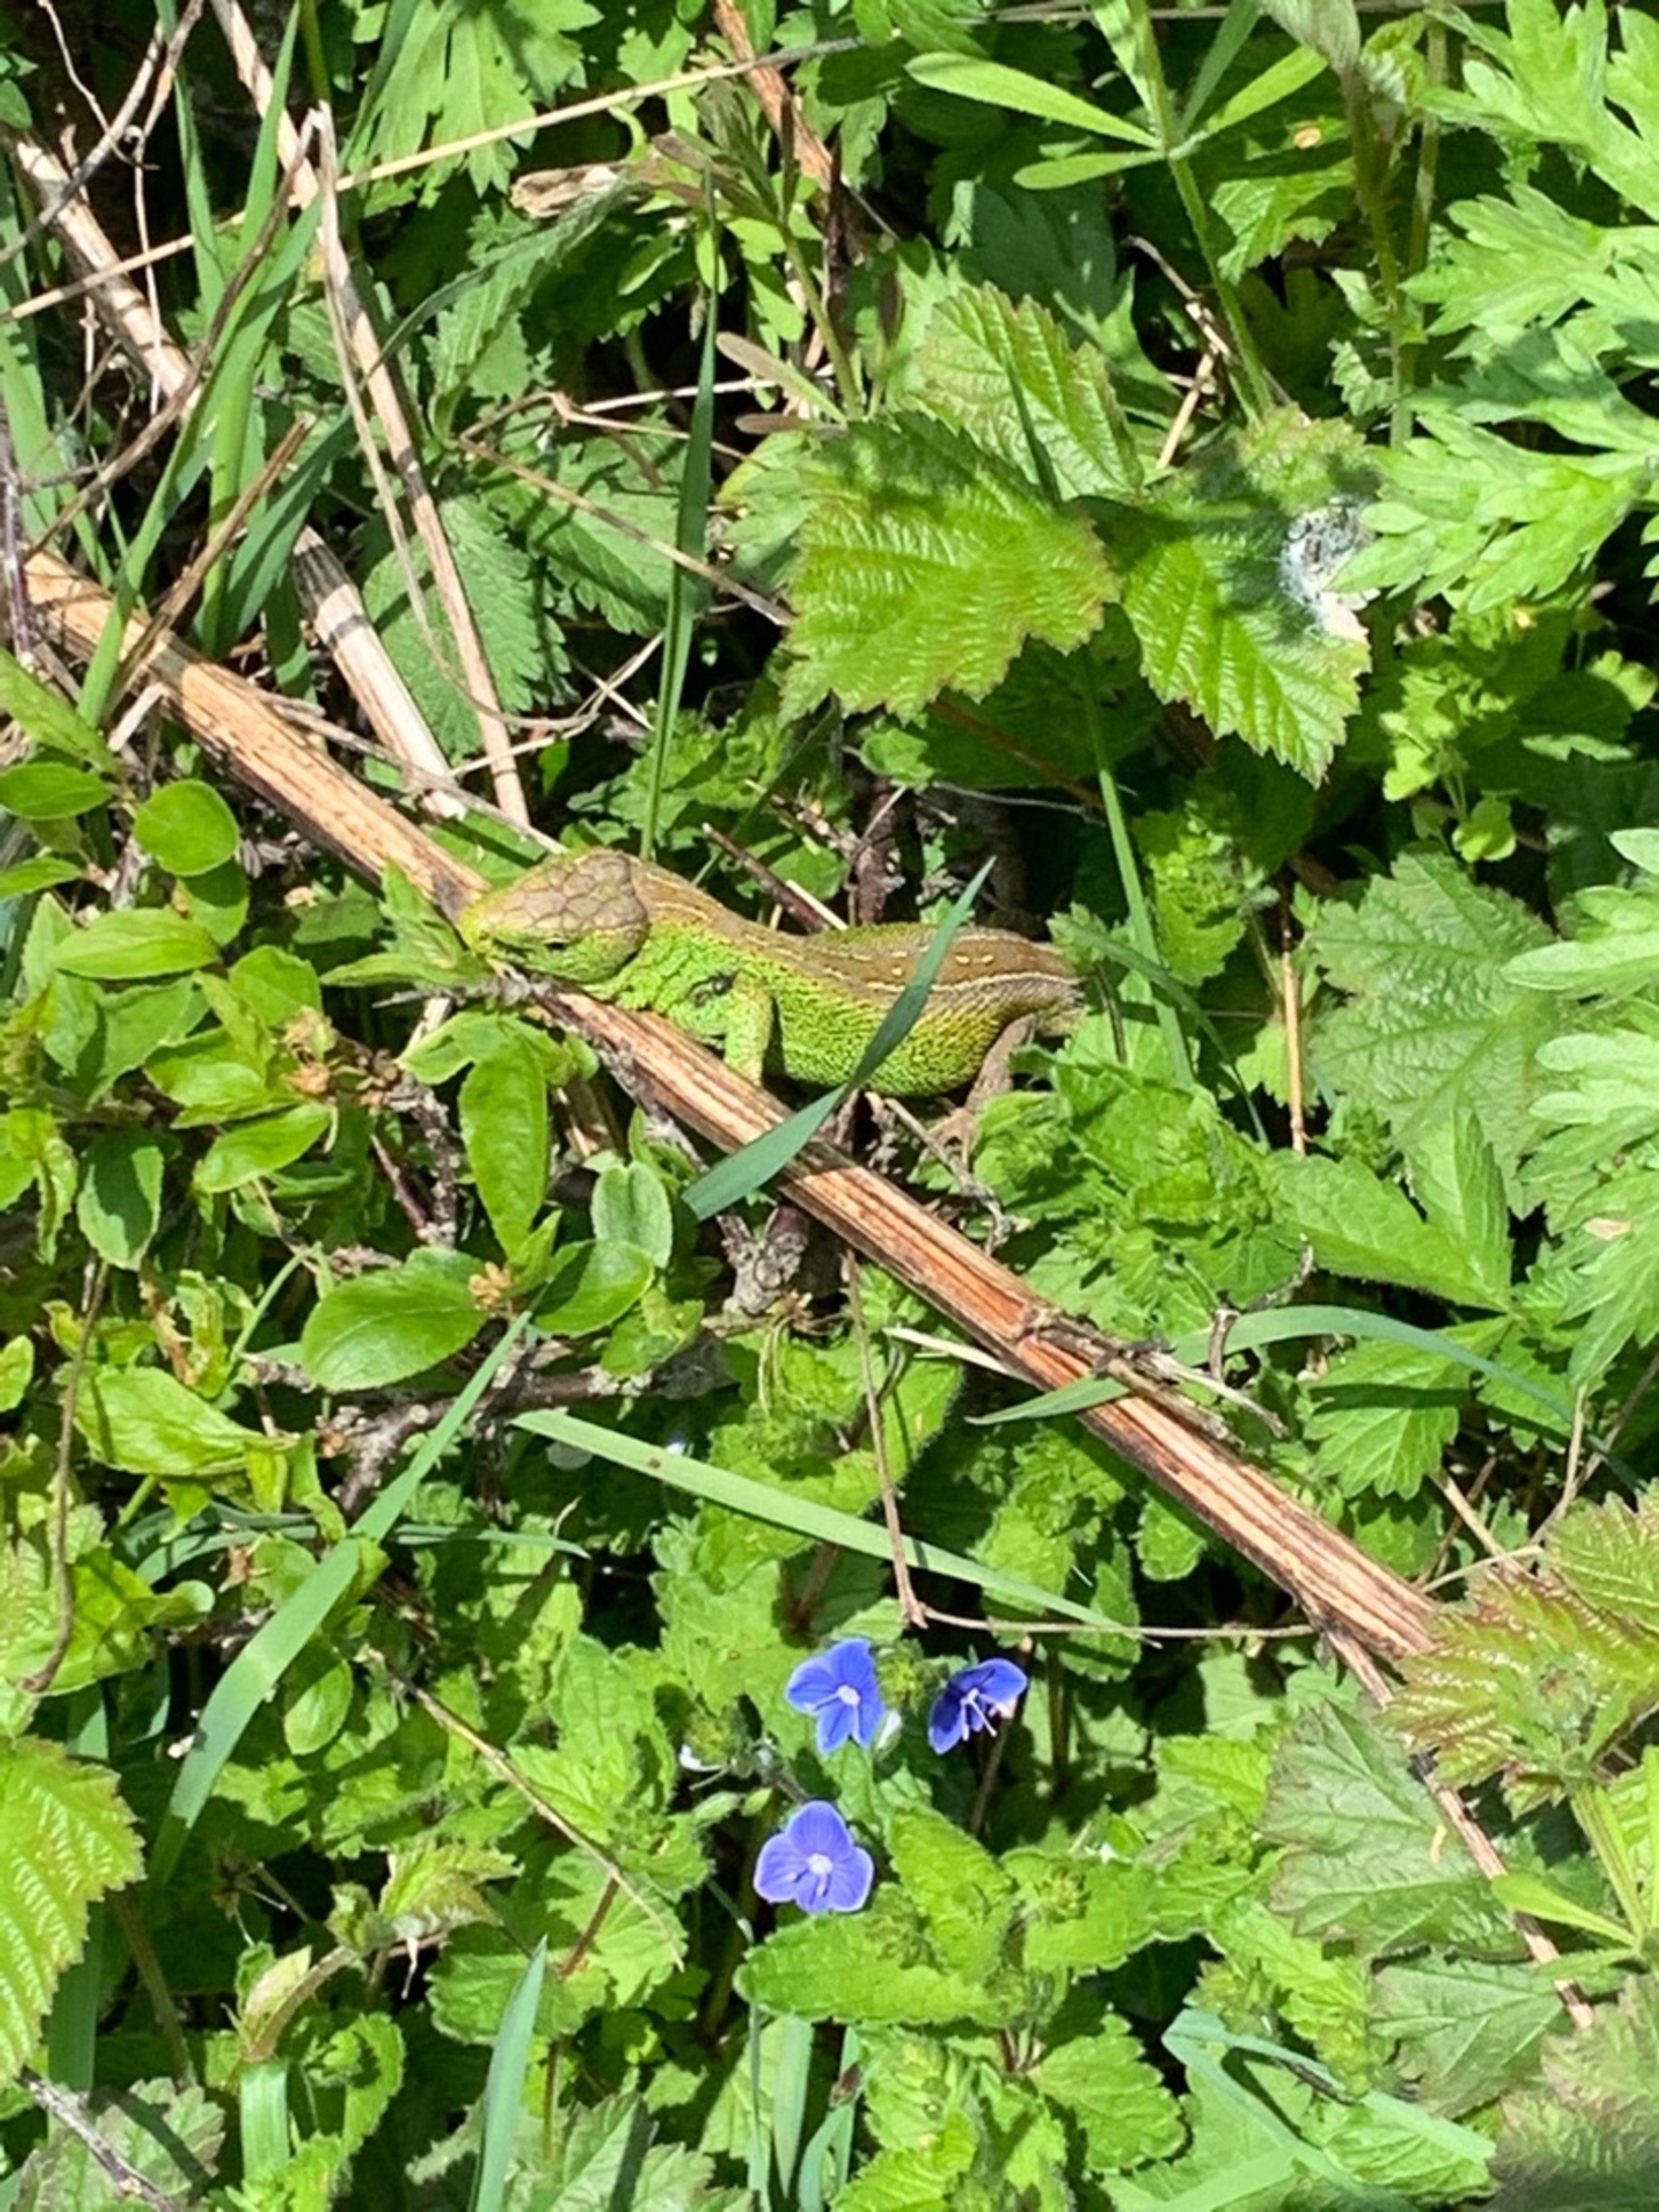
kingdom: Animalia
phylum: Chordata
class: Squamata
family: Lacertidae
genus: Lacerta
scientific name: Lacerta agilis
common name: Markfirben
